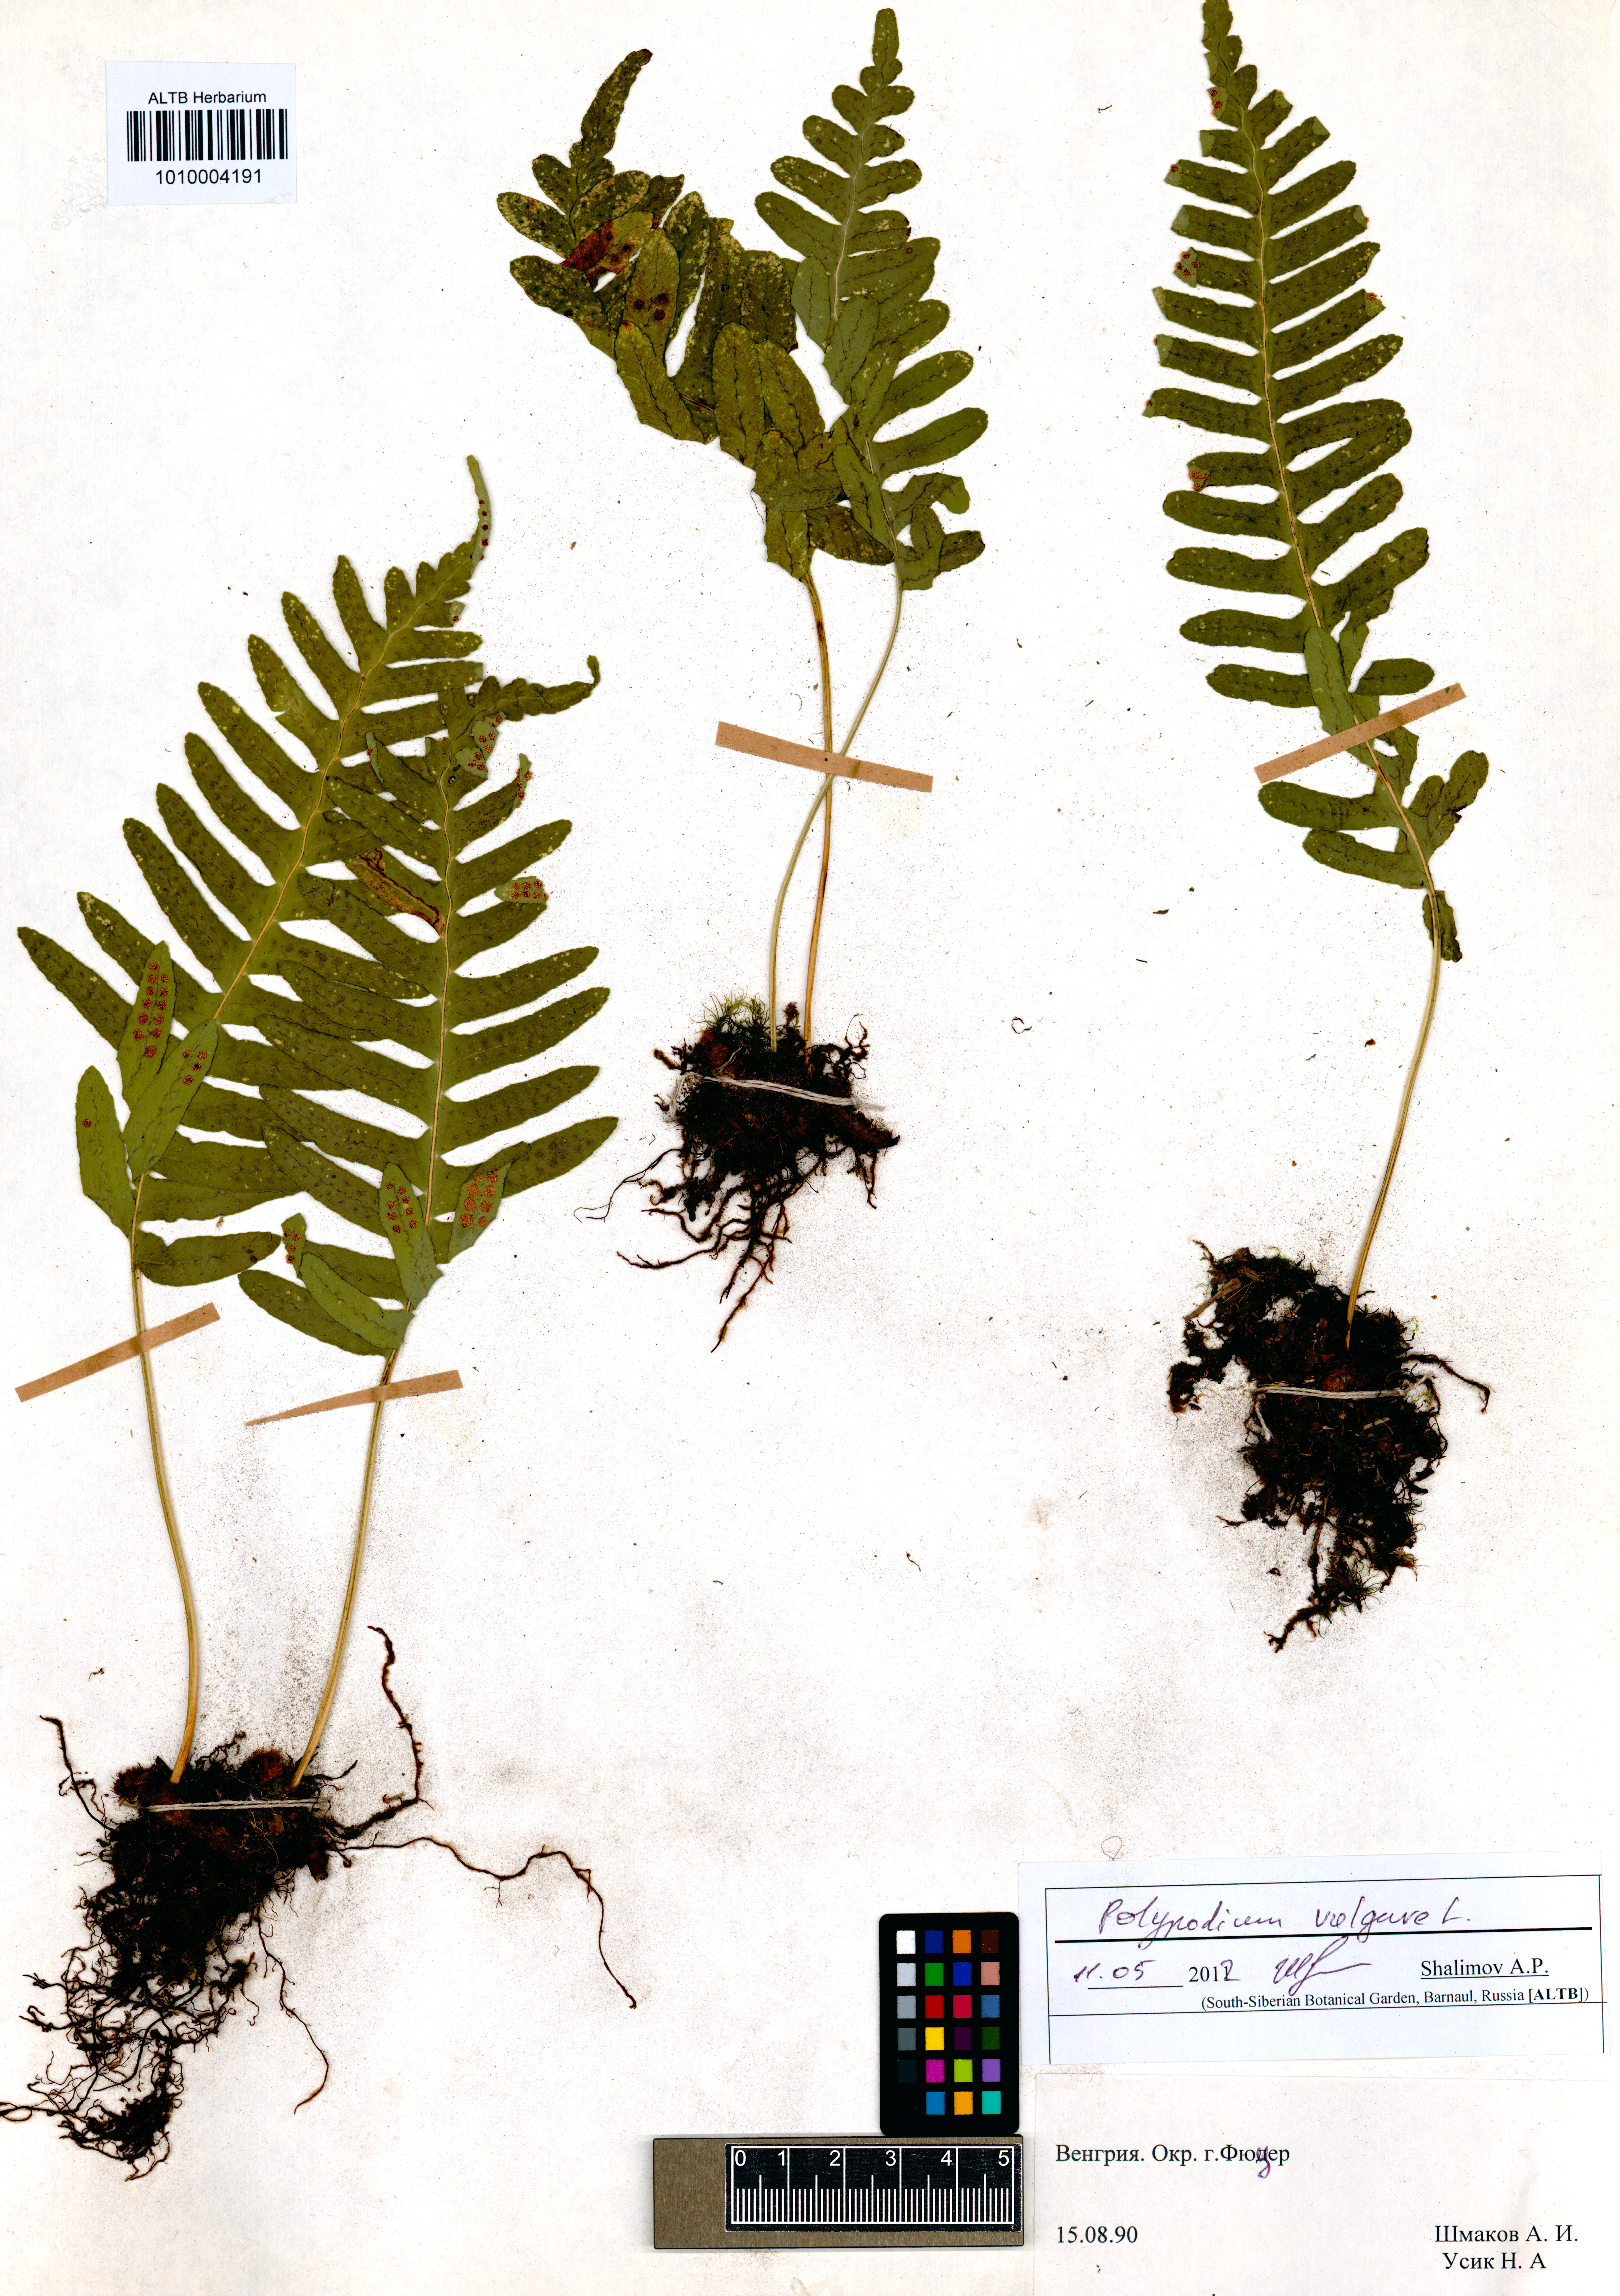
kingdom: Plantae
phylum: Tracheophyta
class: Polypodiopsida
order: Polypodiales
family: Polypodiaceae
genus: Polypodium
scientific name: Polypodium vulgare
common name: Common polypody
